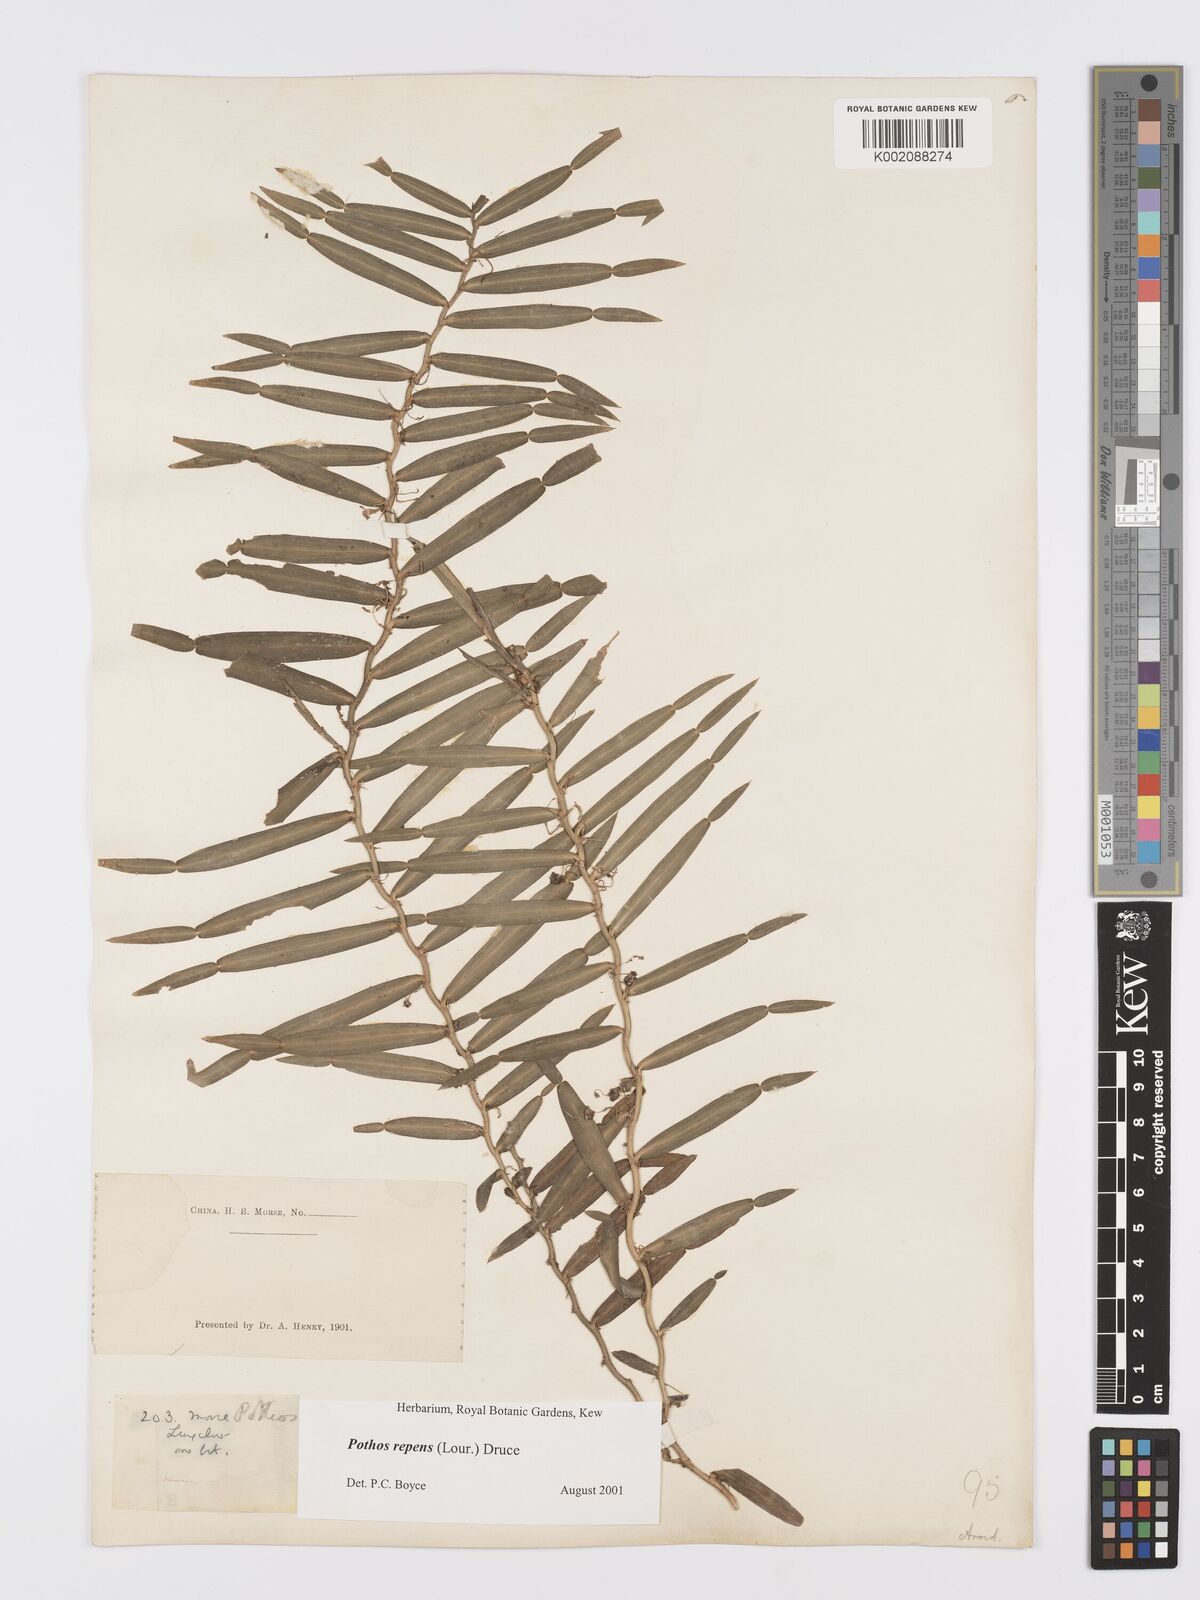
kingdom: Plantae
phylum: Tracheophyta
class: Liliopsida
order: Alismatales
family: Araceae
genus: Pothos
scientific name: Pothos repens
